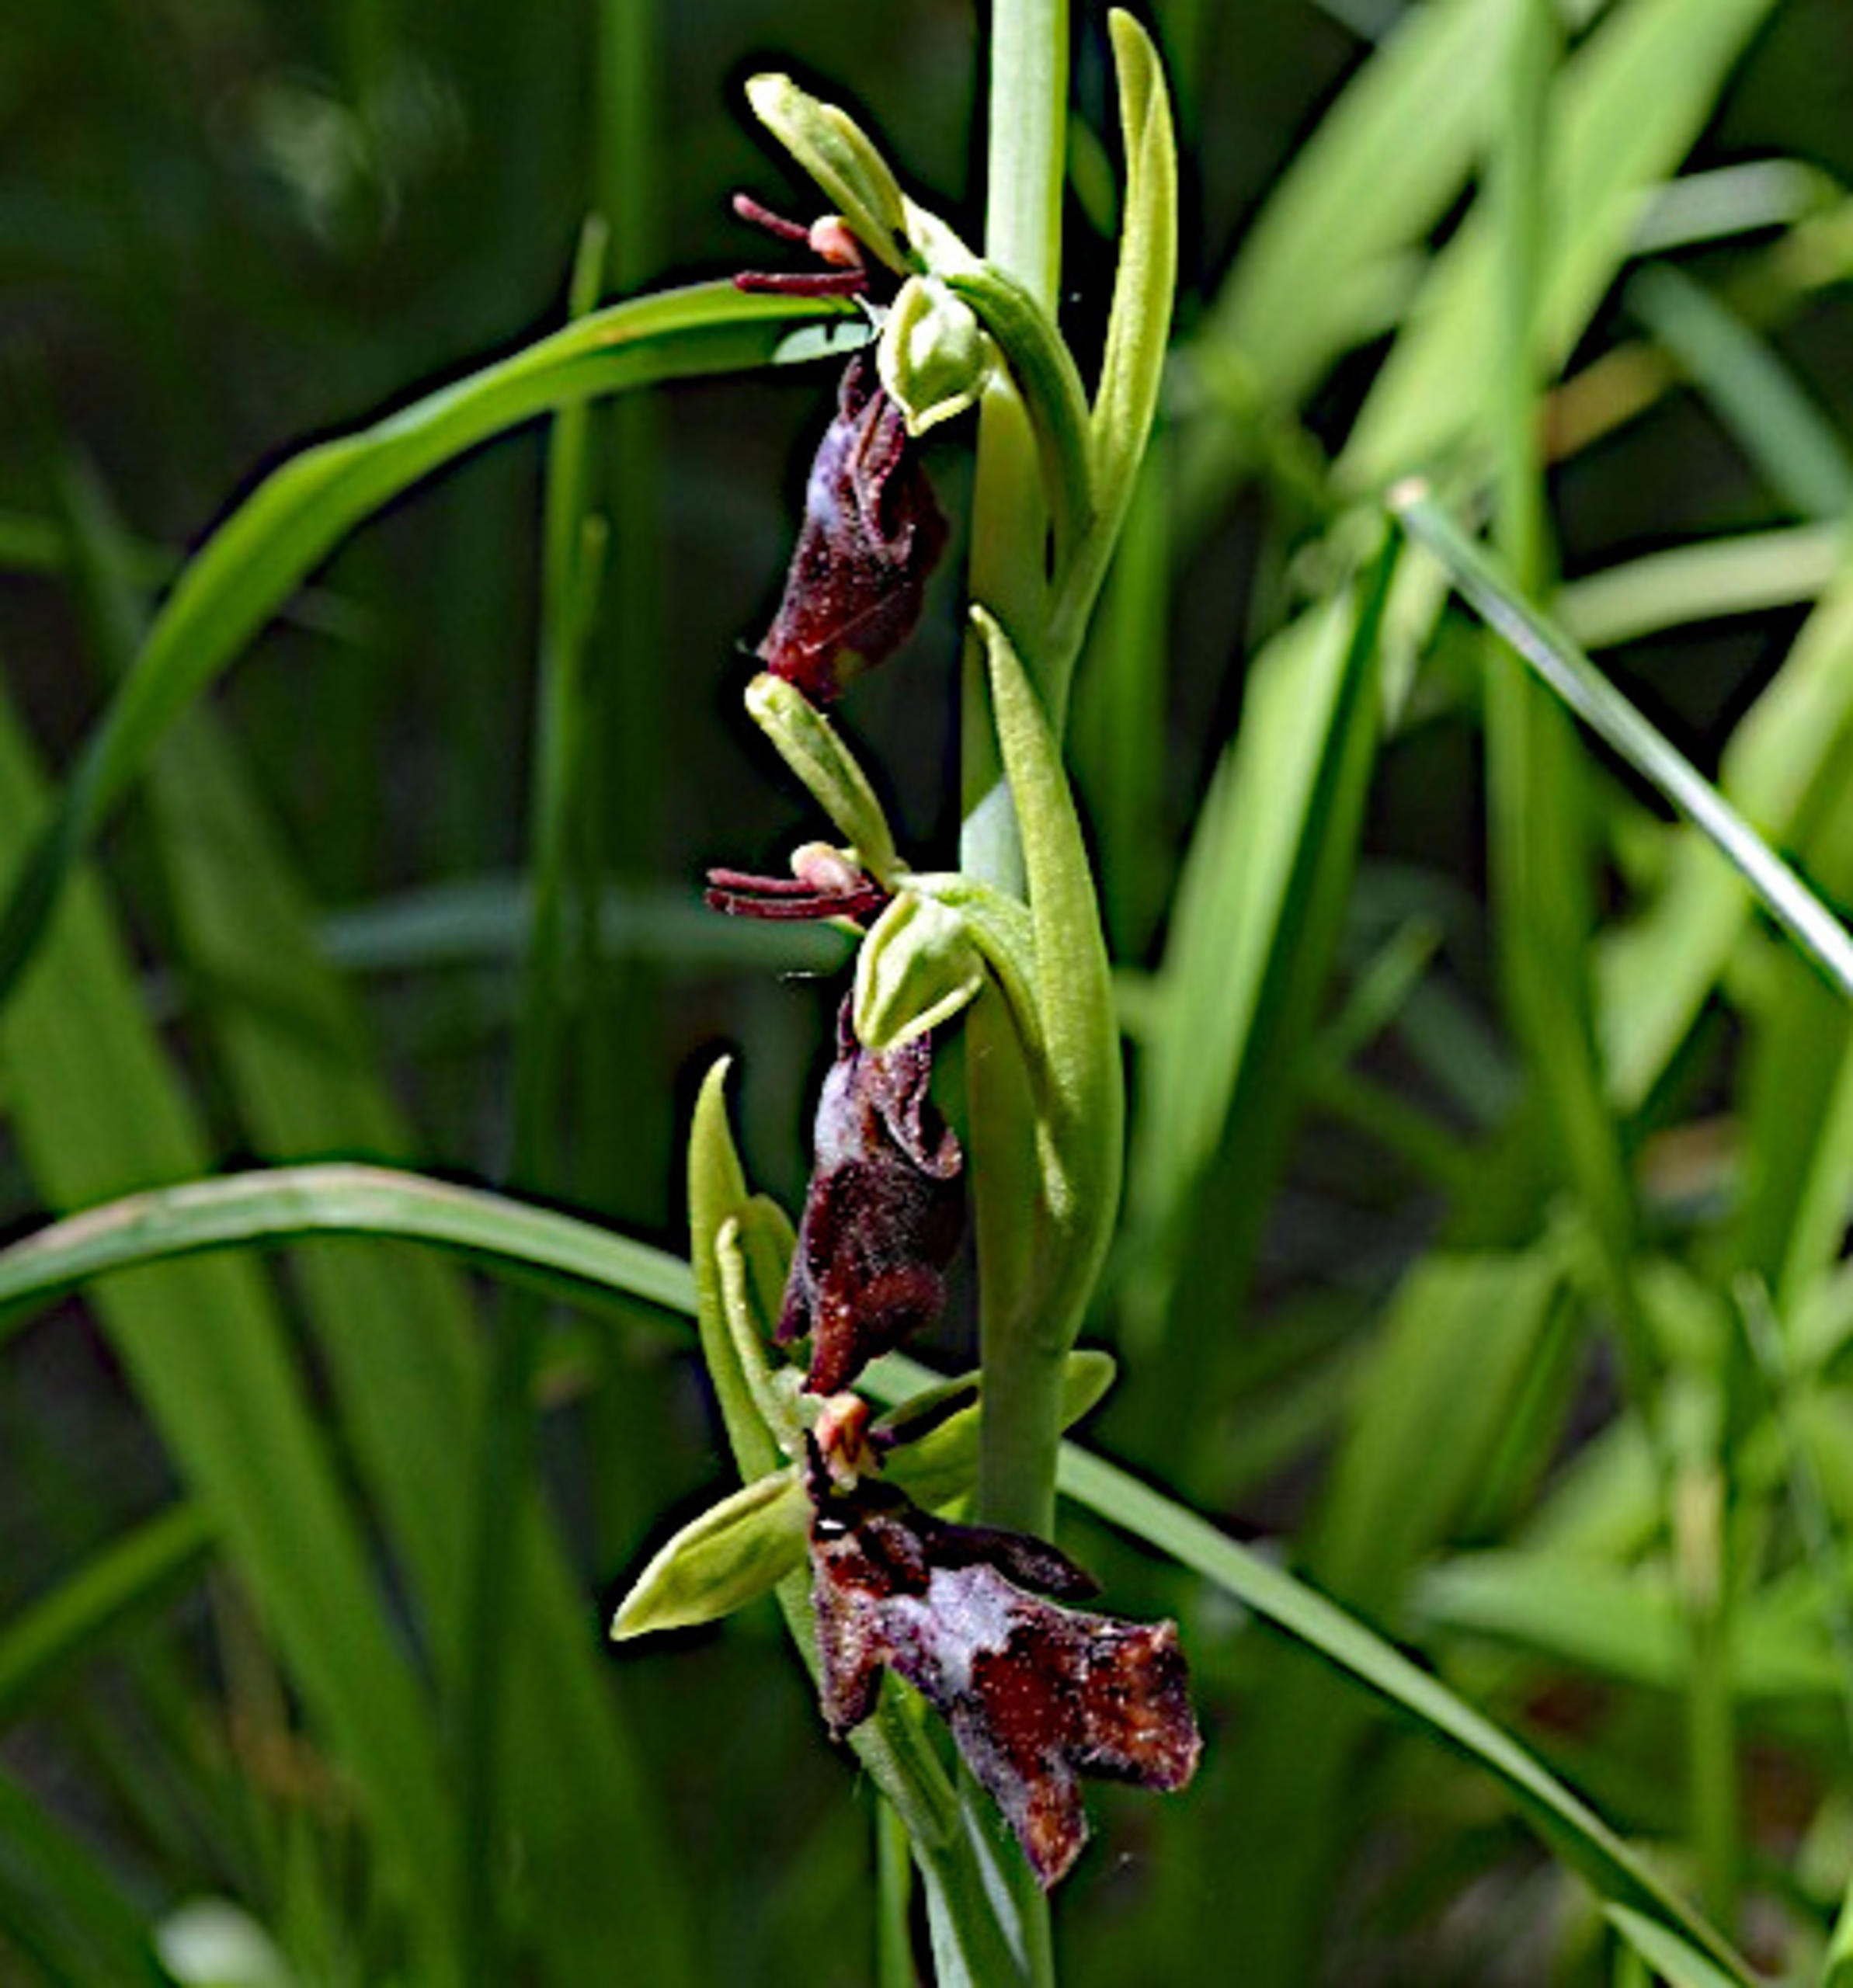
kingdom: Plantae
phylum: Tracheophyta
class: Liliopsida
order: Asparagales
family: Orchidaceae
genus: Ophrys
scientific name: Ophrys insectifera
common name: Flueblomst
